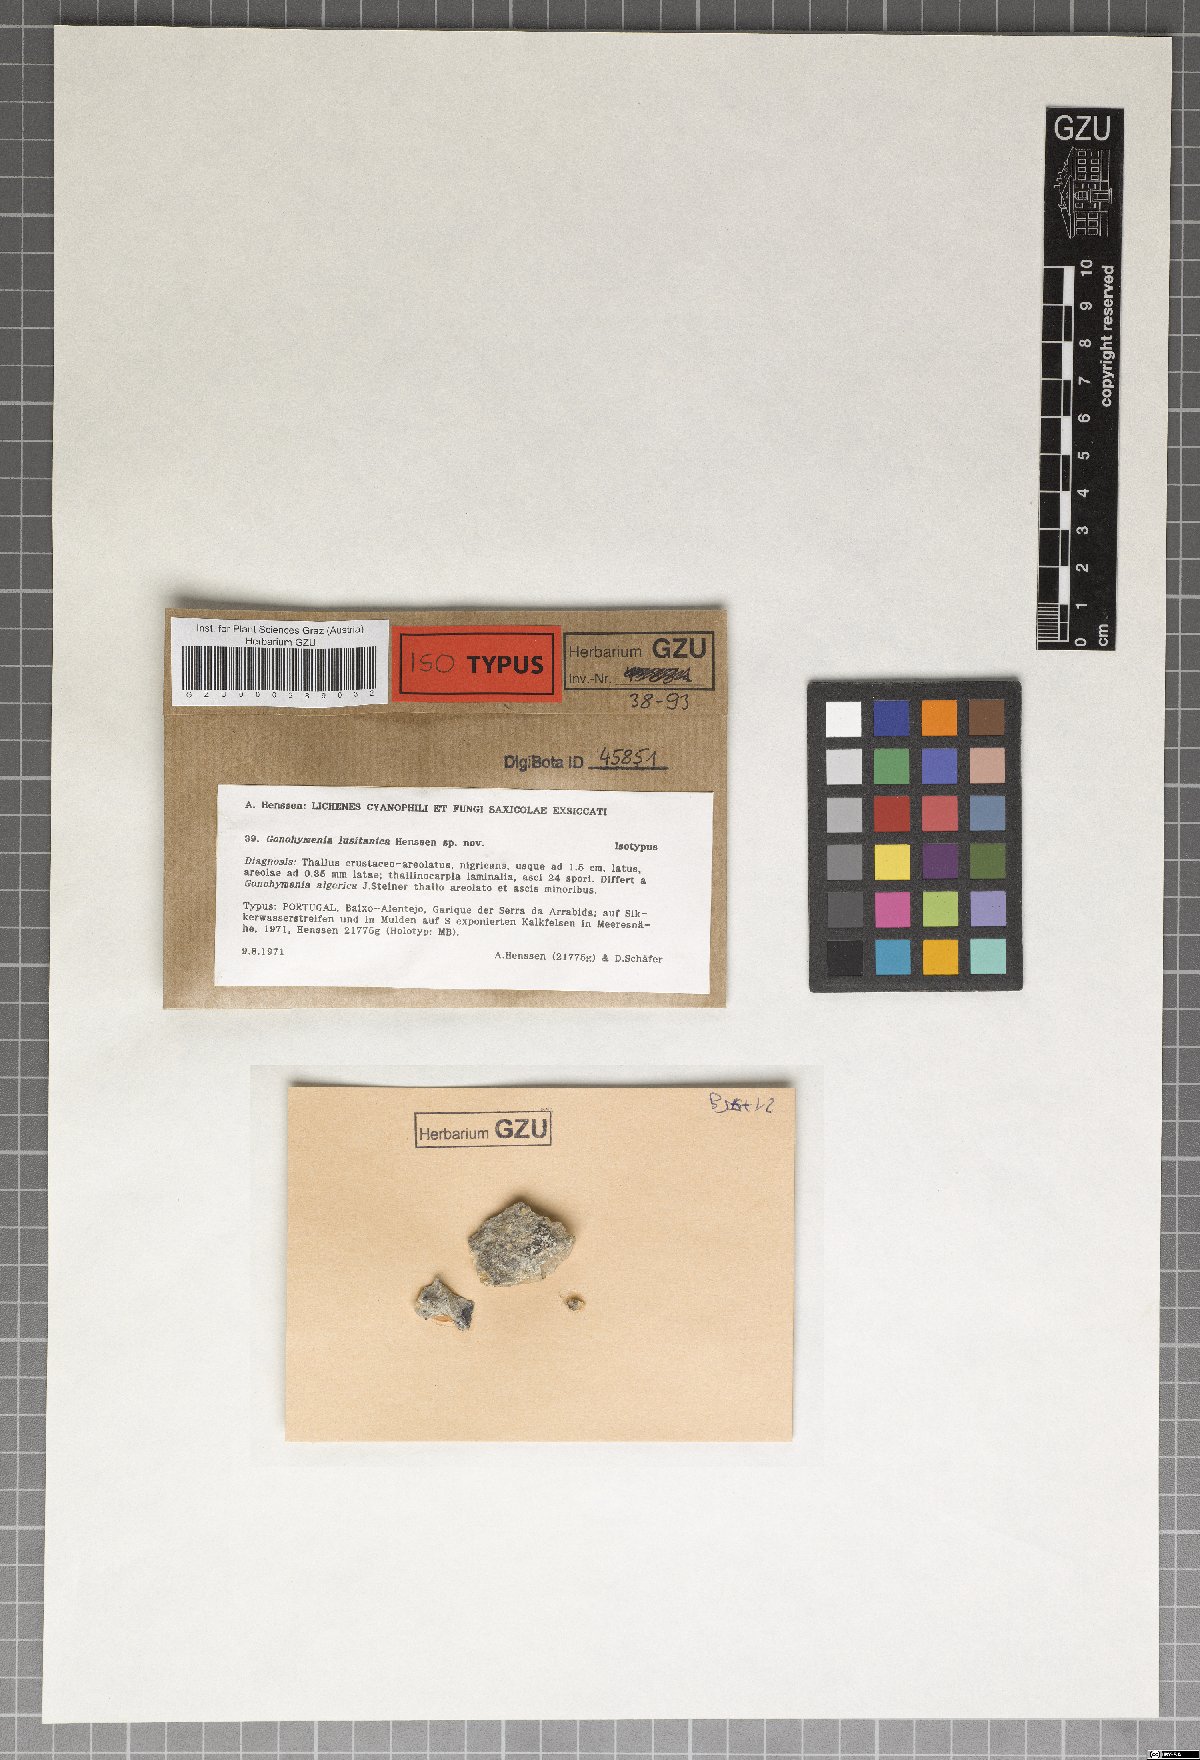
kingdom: Fungi
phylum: Ascomycota
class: Lichinomycetes
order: Lichinales
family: Lichinaceae
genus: Gonohymenia
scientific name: Gonohymenia lusitanica
